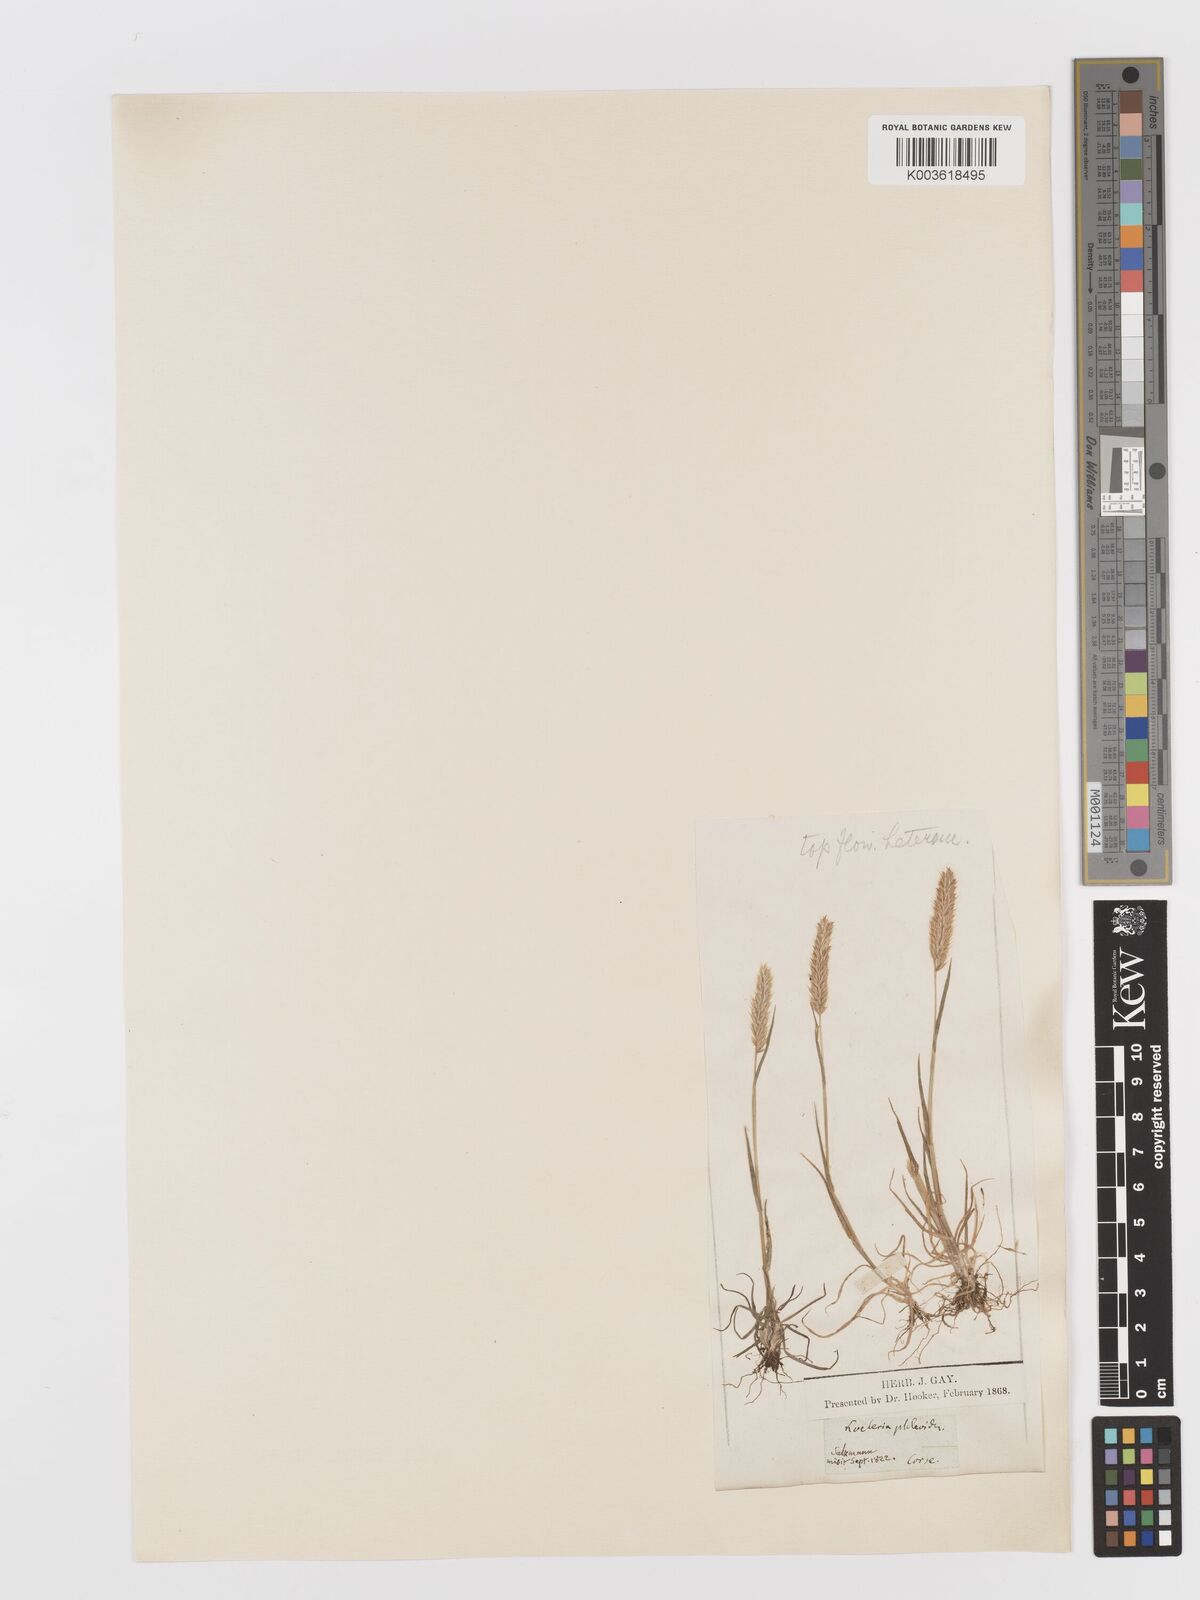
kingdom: Plantae
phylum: Tracheophyta
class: Liliopsida
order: Poales
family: Poaceae
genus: Rostraria
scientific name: Rostraria cristata
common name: Mediterranean hair-grass
